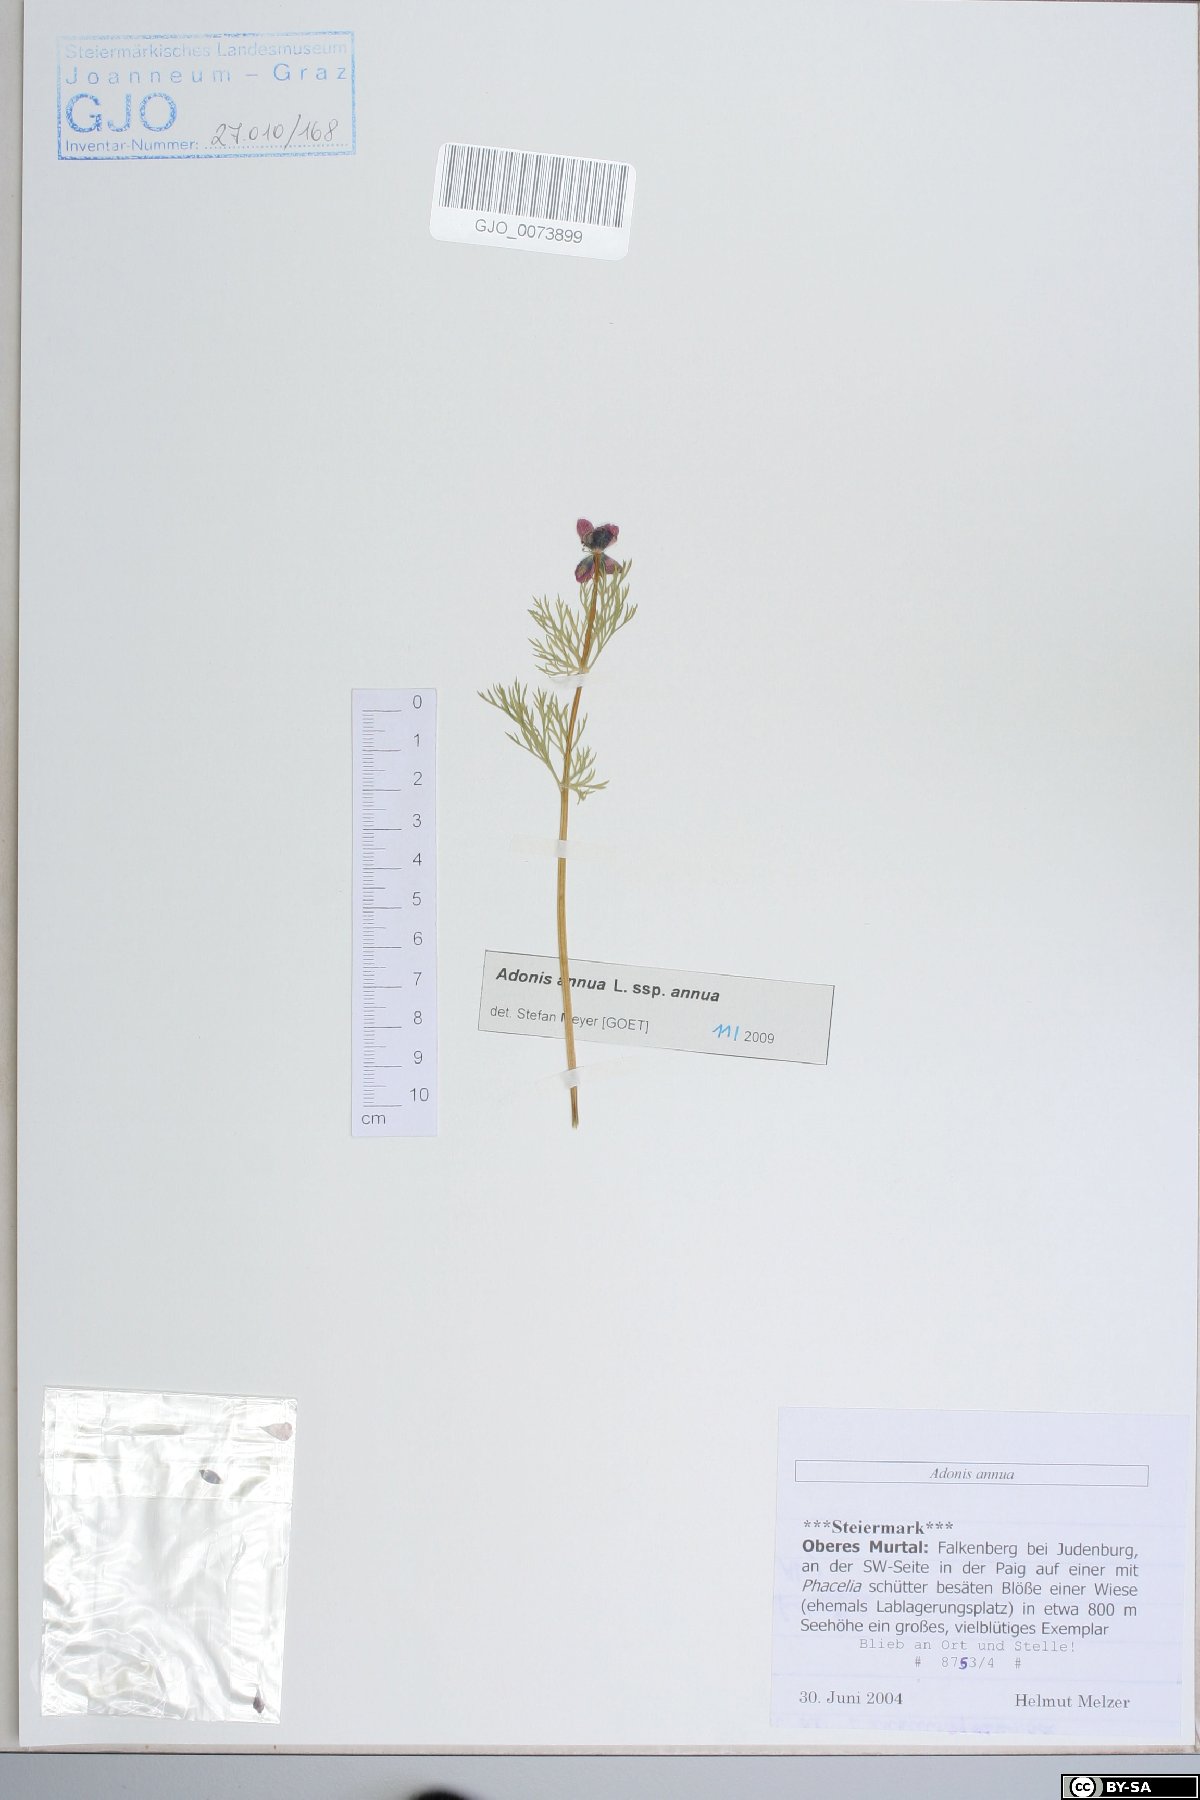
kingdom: Plantae
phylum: Tracheophyta
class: Magnoliopsida
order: Ranunculales
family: Ranunculaceae
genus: Adonis
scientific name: Adonis annua
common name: Pheasant's-eye
